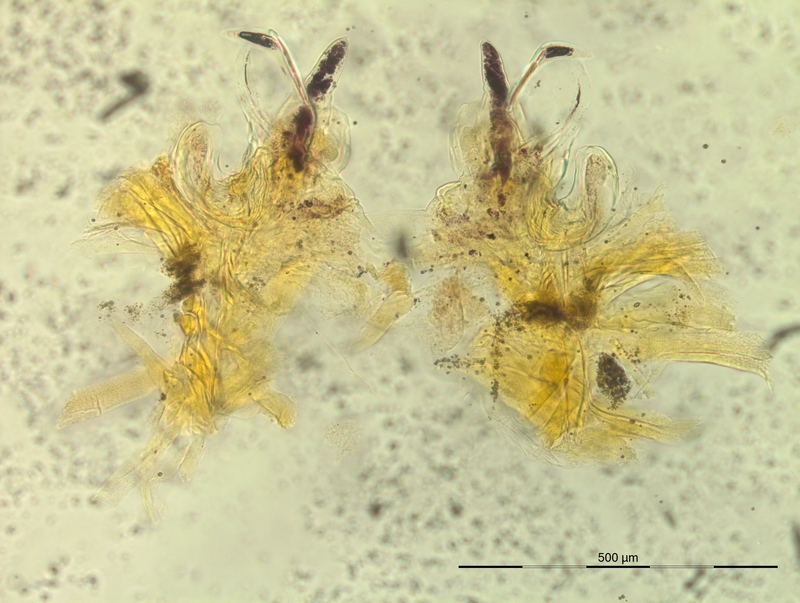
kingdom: Animalia
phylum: Arthropoda
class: Diplopoda
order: Chordeumatida
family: Craspedosomatidae
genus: Oxydactylon
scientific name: Oxydactylon apenninorum
